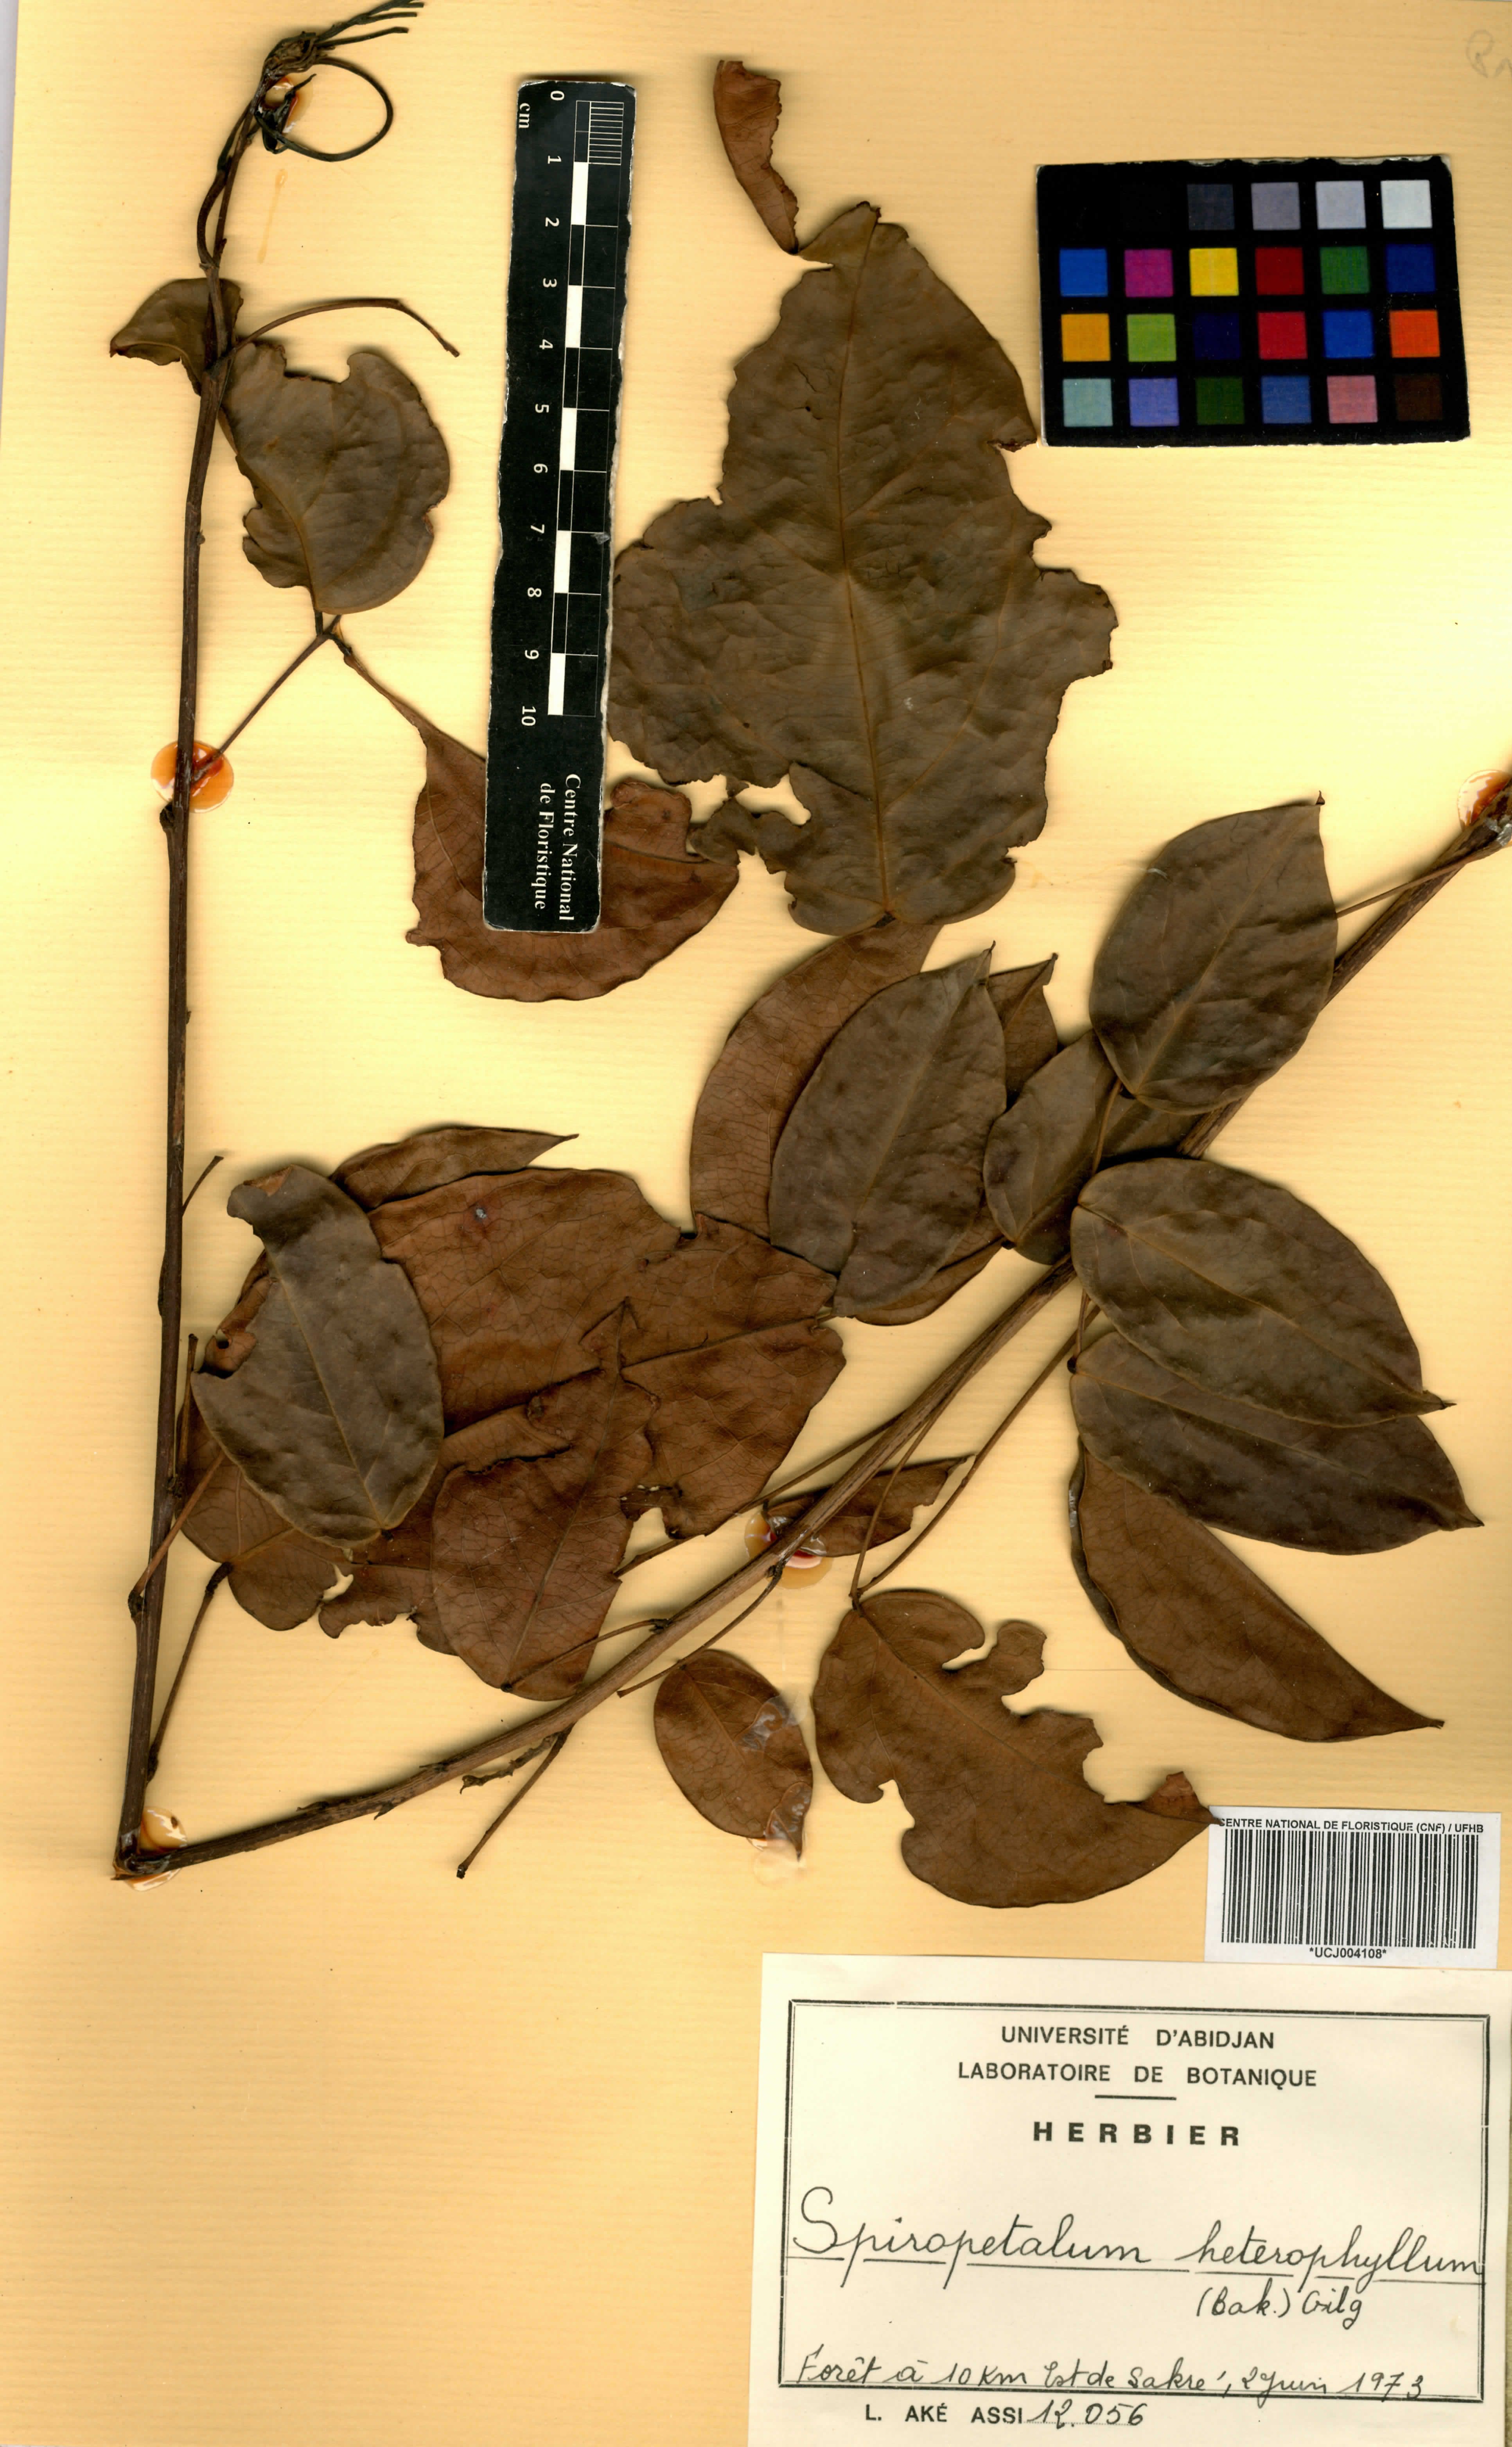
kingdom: Plantae
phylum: Tracheophyta
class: Magnoliopsida
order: Oxalidales
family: Connaraceae
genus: Rourea
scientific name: Rourea solanderi
